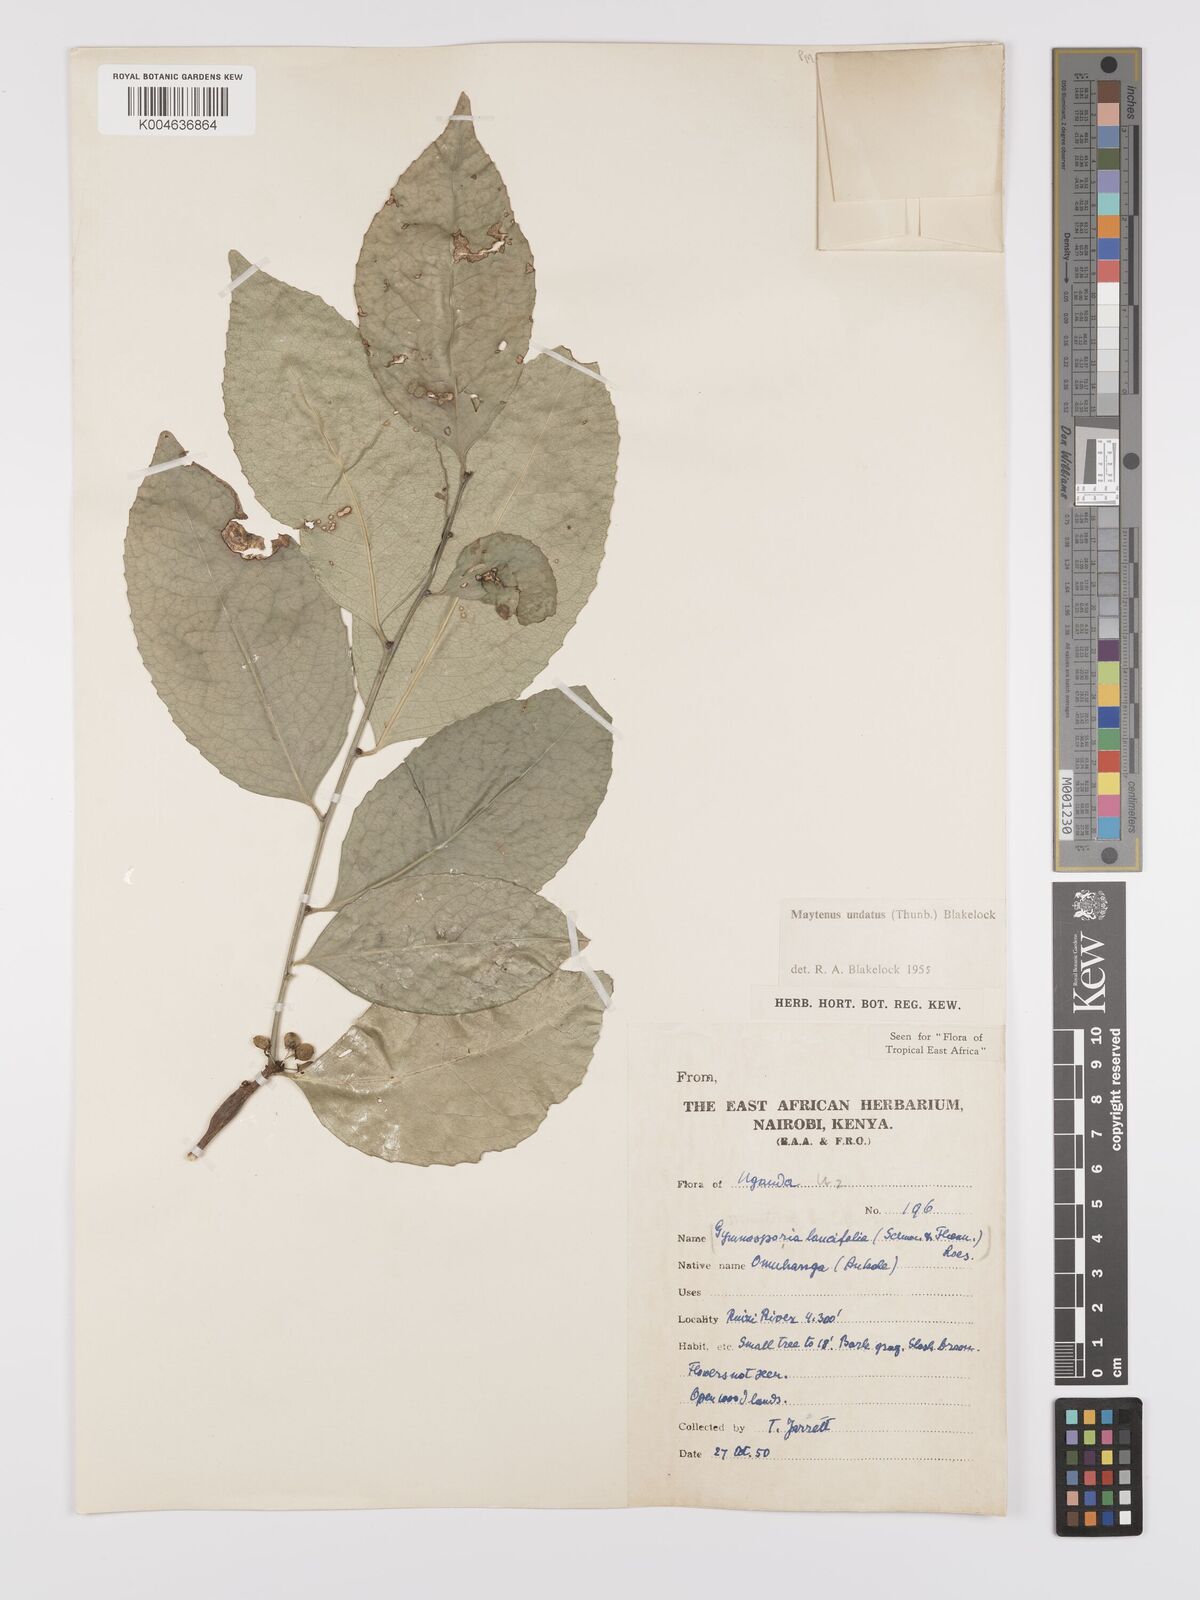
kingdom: Plantae
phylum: Tracheophyta
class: Magnoliopsida
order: Celastrales
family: Celastraceae
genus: Gymnosporia
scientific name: Gymnosporia undata
